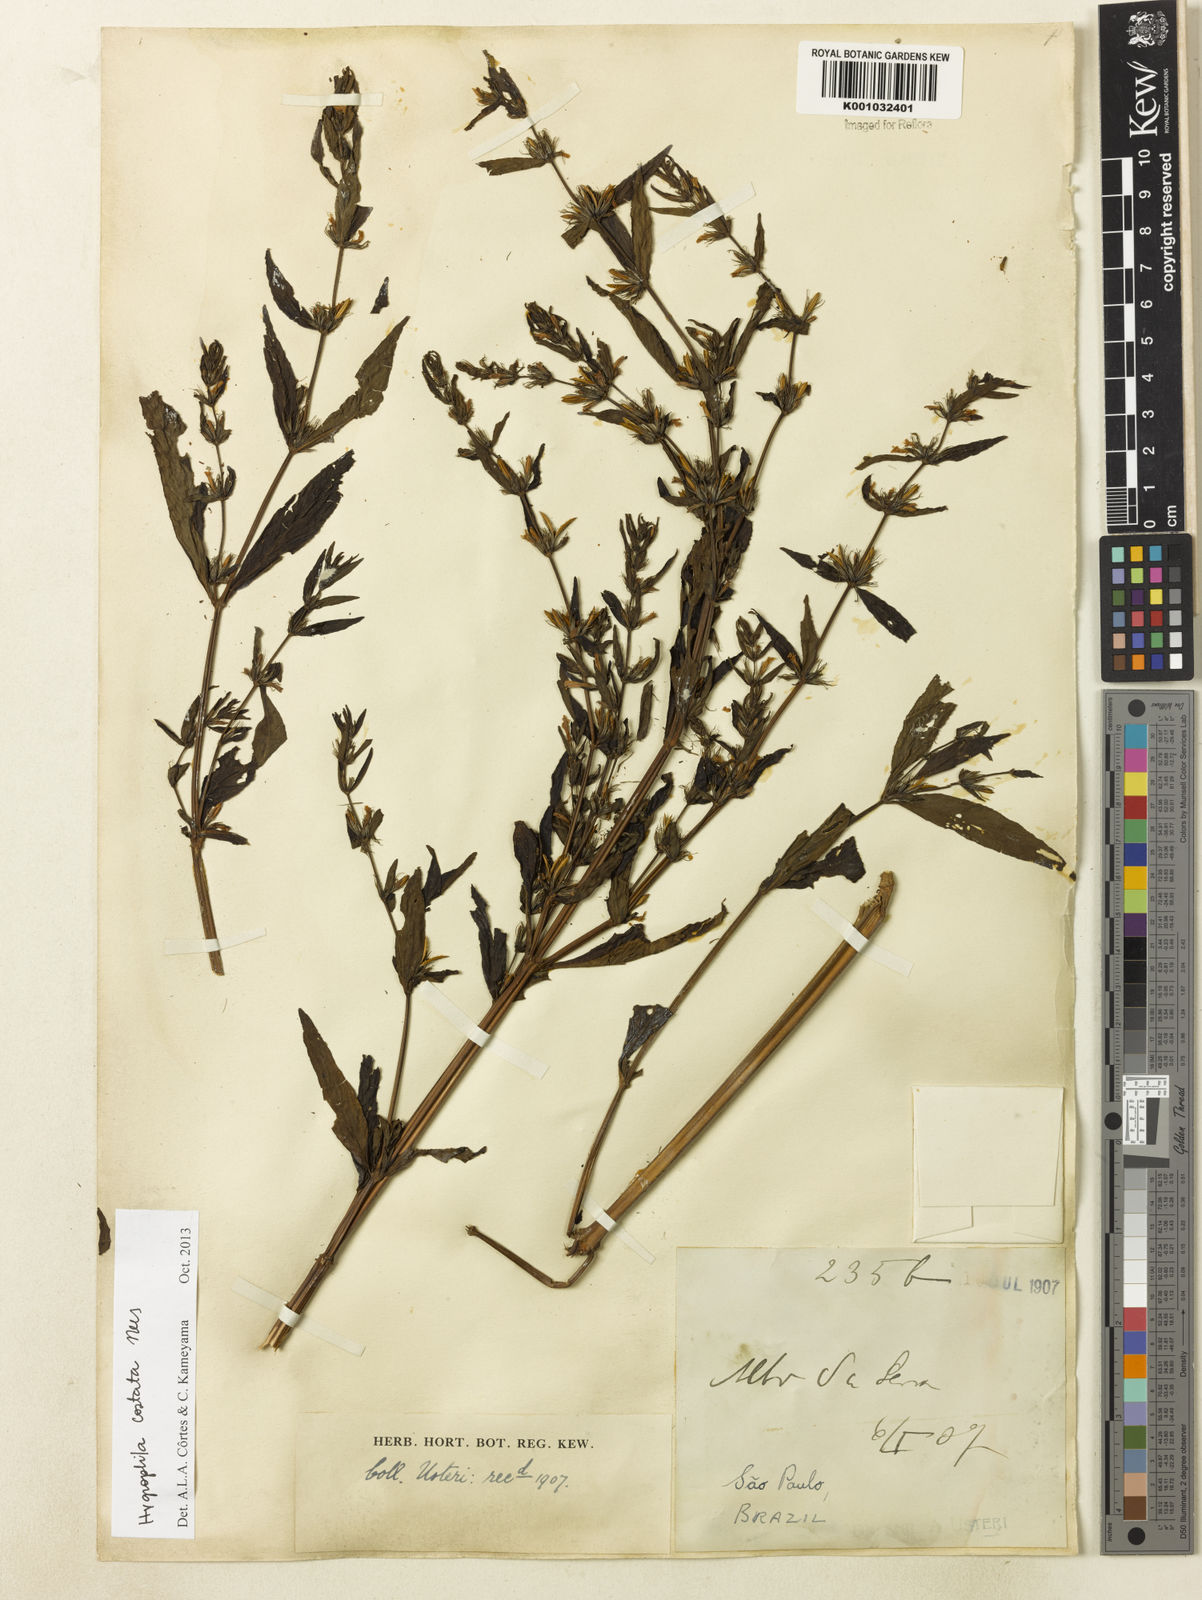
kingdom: Plantae
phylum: Tracheophyta
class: Magnoliopsida
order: Lamiales
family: Acanthaceae
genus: Hygrophila
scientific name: Hygrophila costata
